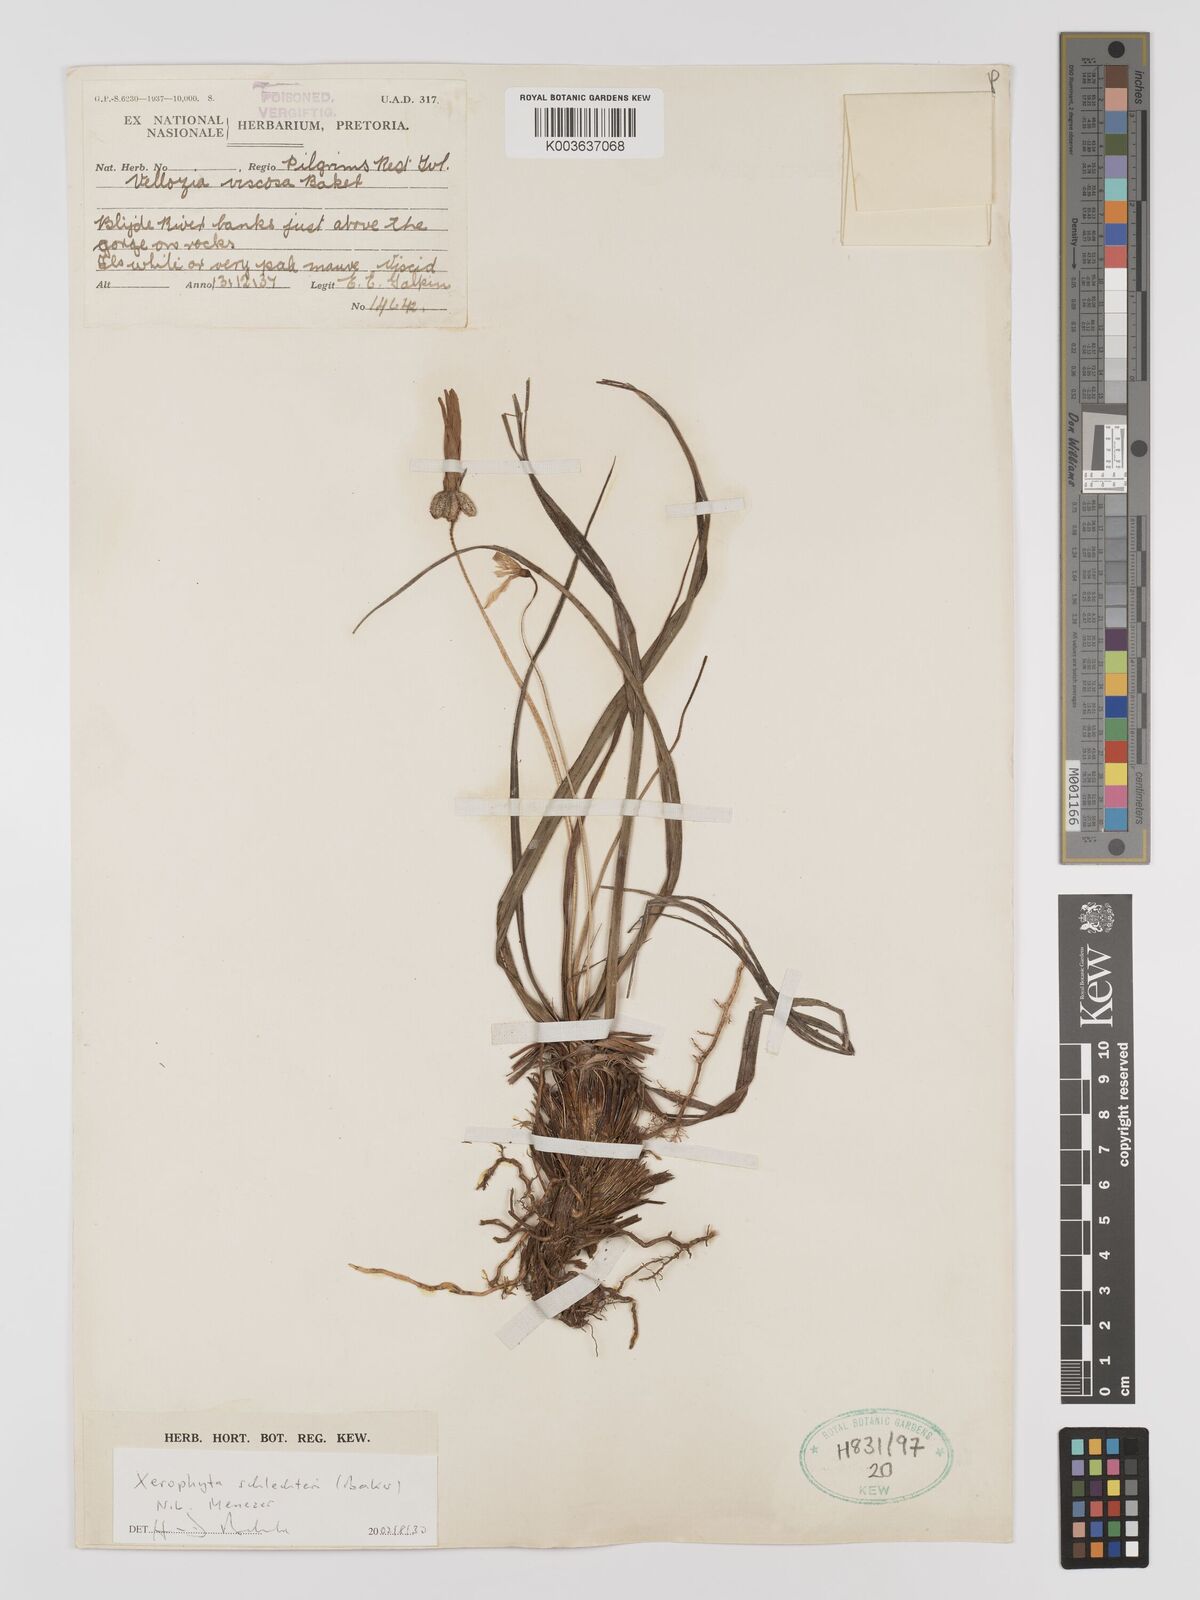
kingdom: Plantae
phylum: Tracheophyta
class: Liliopsida
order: Pandanales
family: Velloziaceae
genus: Xerophyta
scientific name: Xerophyta schlechteri
